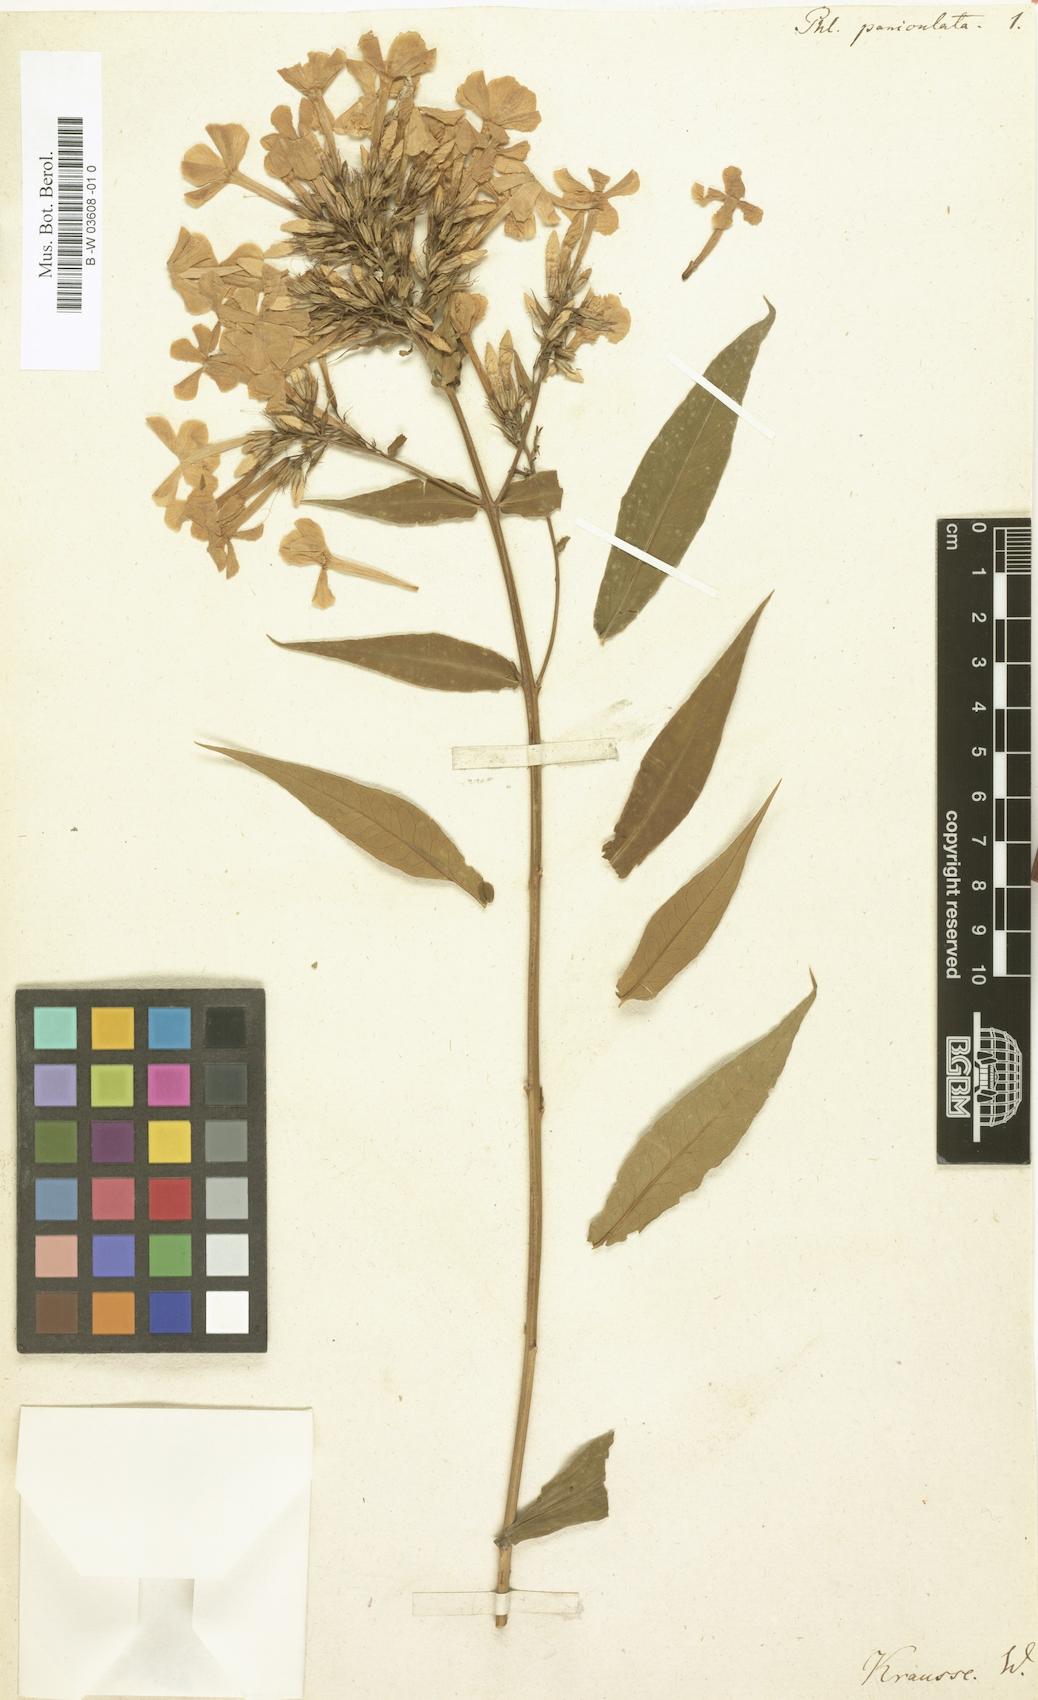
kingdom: Plantae
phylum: Tracheophyta
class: Magnoliopsida
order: Ericales
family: Polemoniaceae
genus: Phlox
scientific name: Phlox paniculata
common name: Fall phlox
